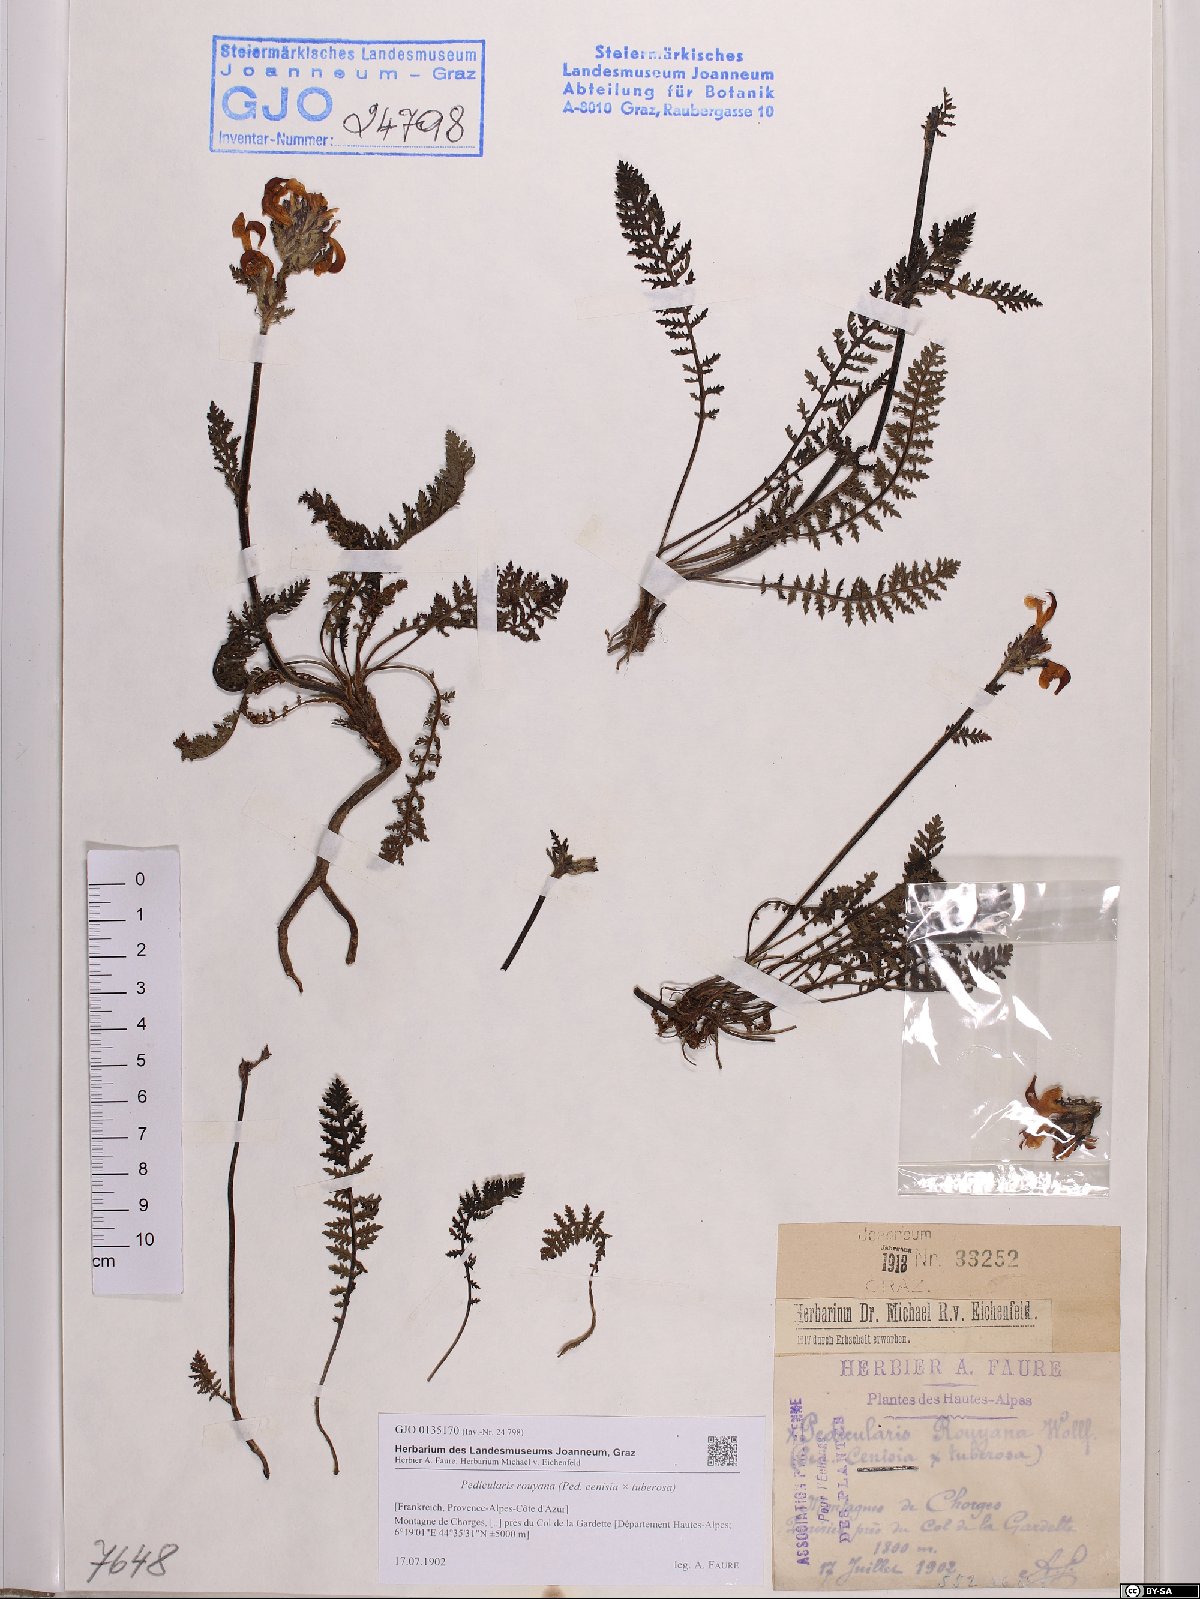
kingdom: Plantae
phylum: Tracheophyta
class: Magnoliopsida
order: Lamiales
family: Scrophulariaceae
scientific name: Scrophulariaceae
